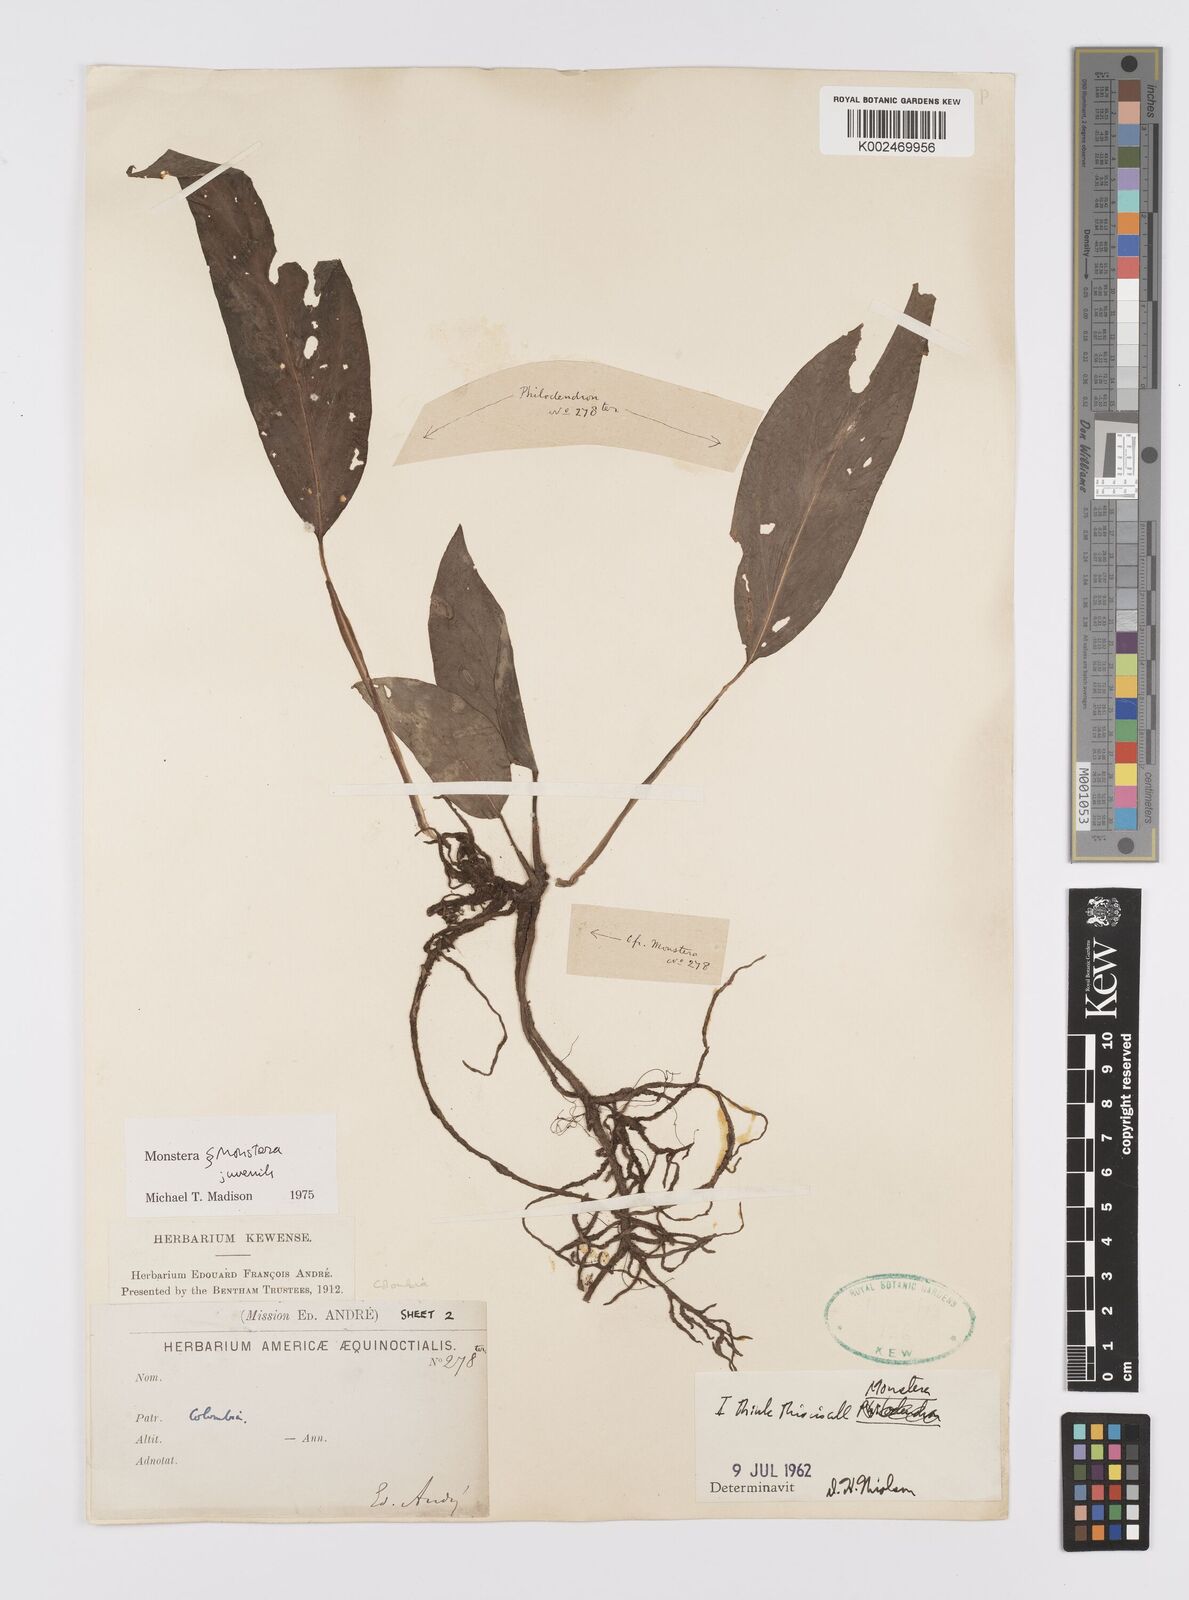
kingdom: Plantae
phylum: Tracheophyta
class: Liliopsida
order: Alismatales
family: Araceae
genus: Monstera
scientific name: Monstera
